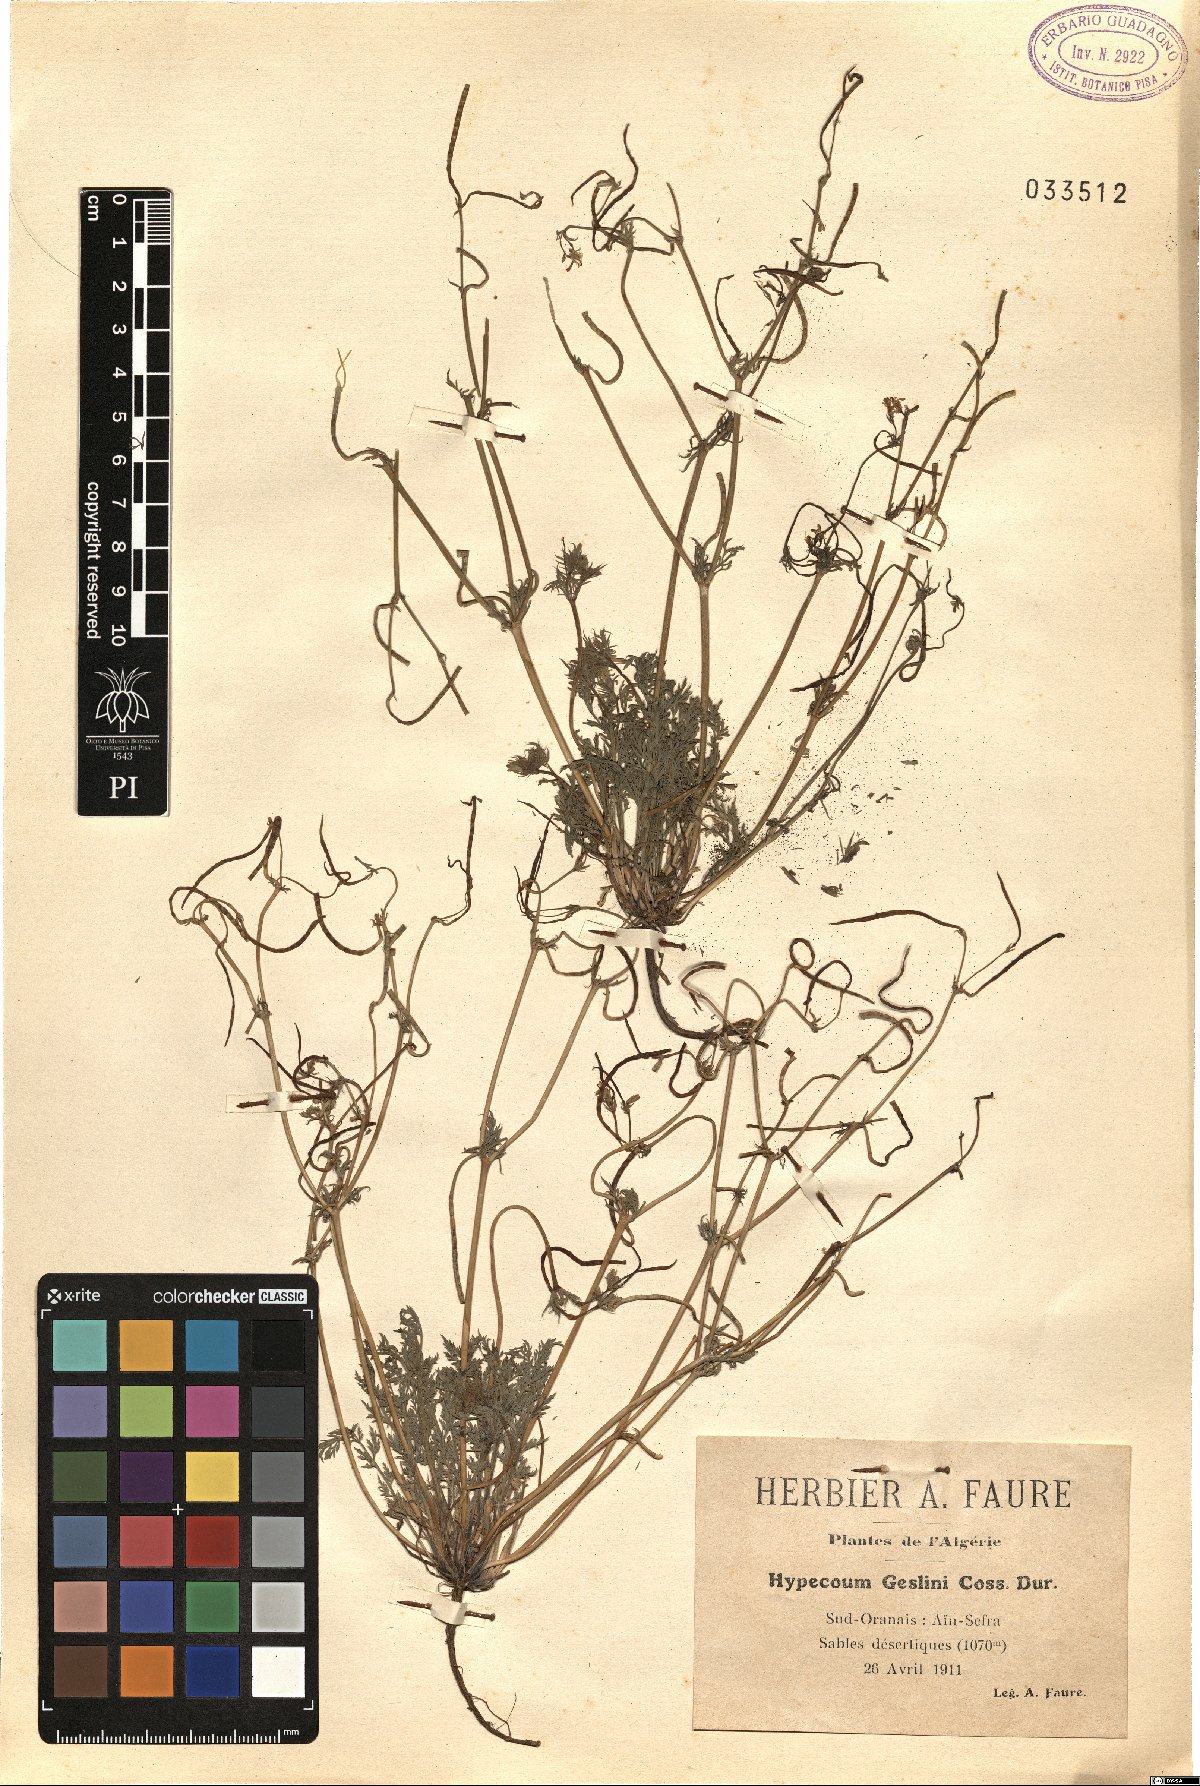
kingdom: Plantae
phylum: Tracheophyta
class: Magnoliopsida
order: Ranunculales
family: Papaveraceae
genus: Hypecoum
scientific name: Hypecoum littorale
